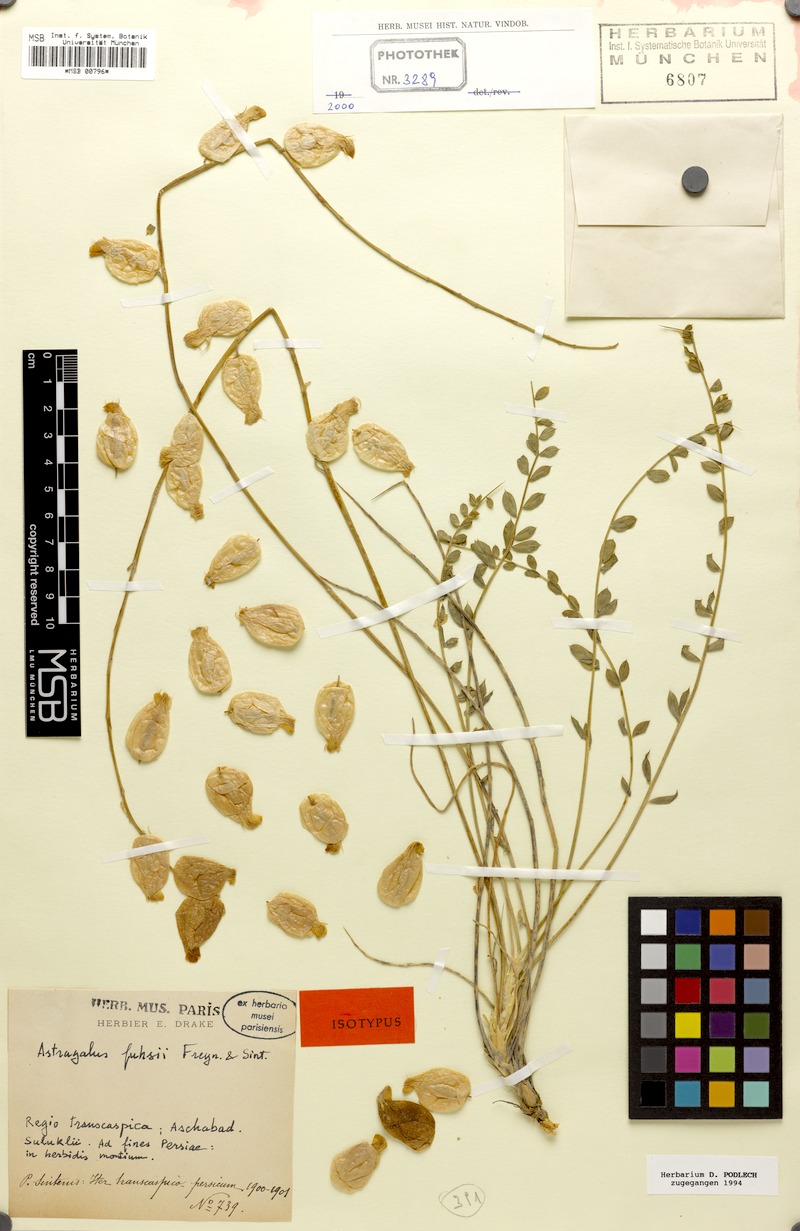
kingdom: Plantae
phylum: Tracheophyta
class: Magnoliopsida
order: Fabales
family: Fabaceae
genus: Astragalus
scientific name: Astragalus fuhsii
